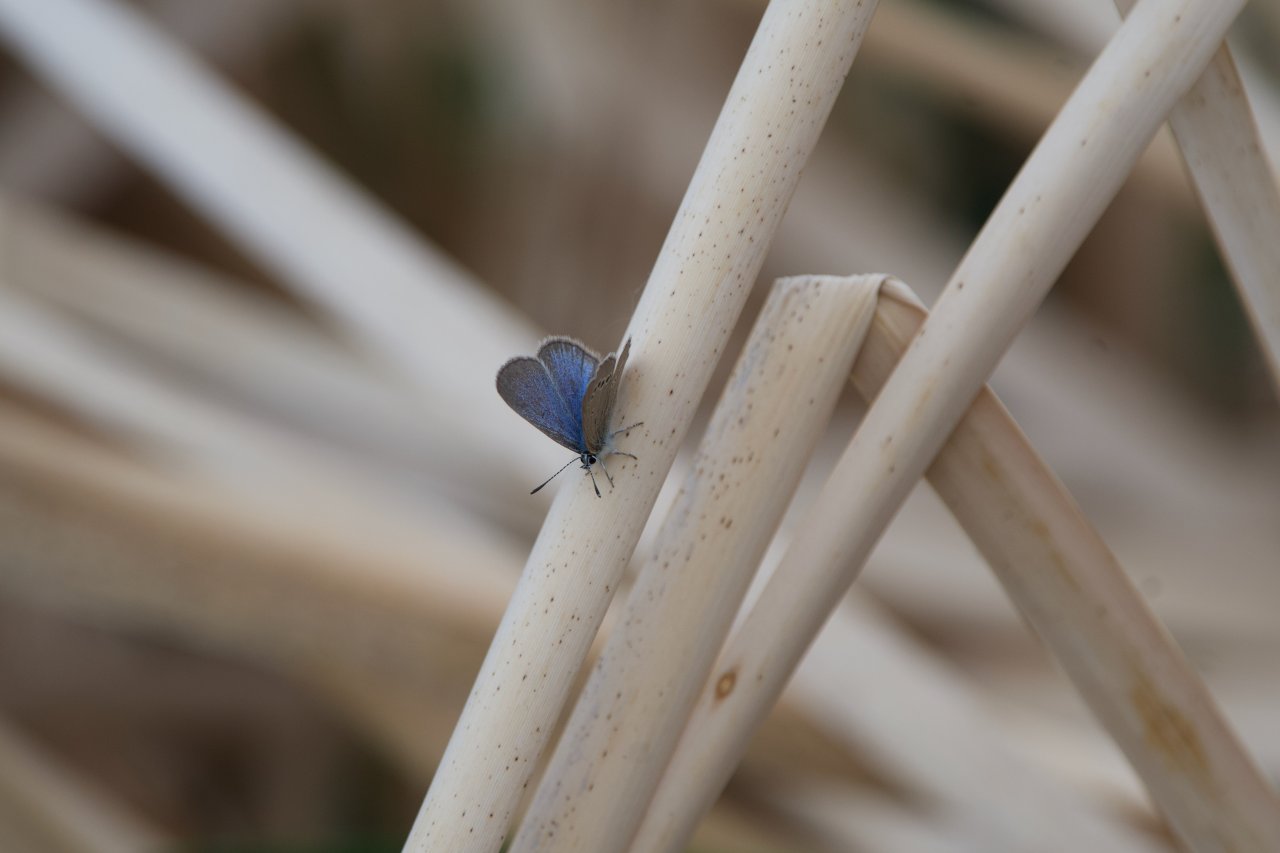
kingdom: Animalia
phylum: Arthropoda
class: Insecta
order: Lepidoptera
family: Lycaenidae
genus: Glaucopsyche
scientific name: Glaucopsyche lygdamus
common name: Silvery Blue
